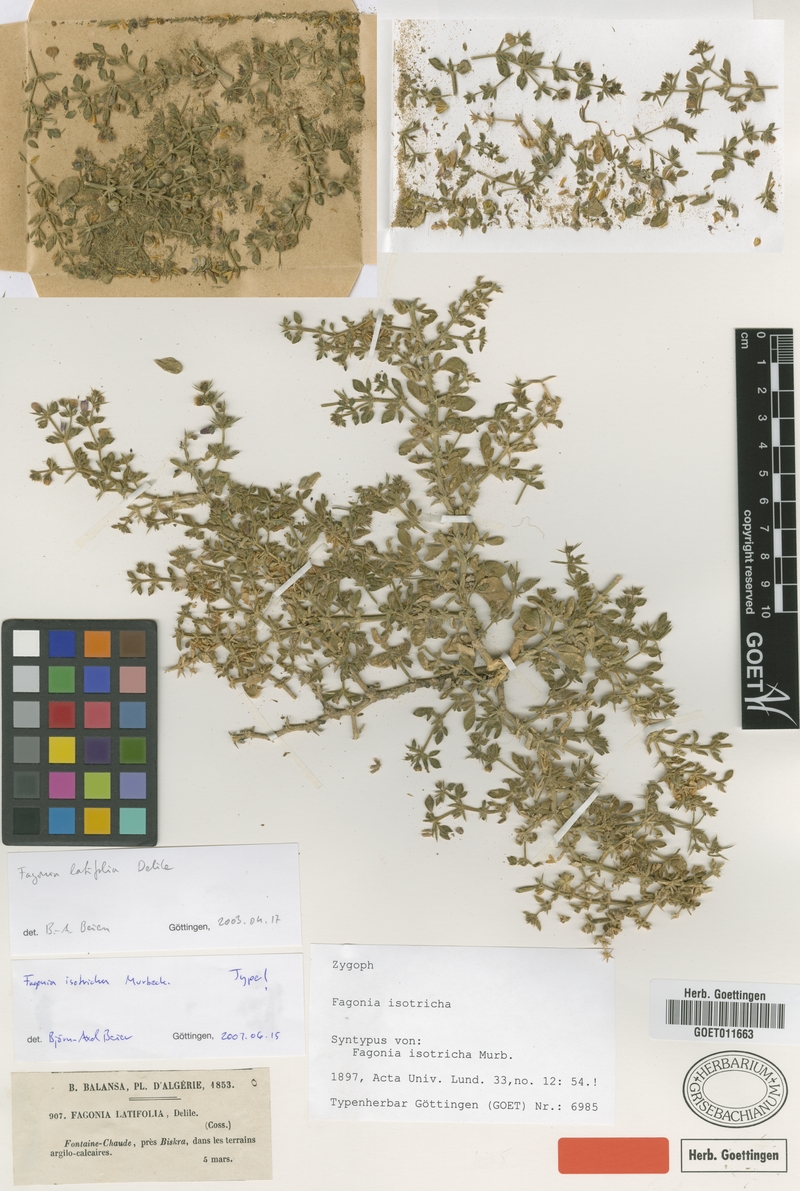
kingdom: Plantae
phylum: Tracheophyta
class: Magnoliopsida
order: Zygophyllales
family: Zygophyllaceae
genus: Fagonia
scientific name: Fagonia latifolia
